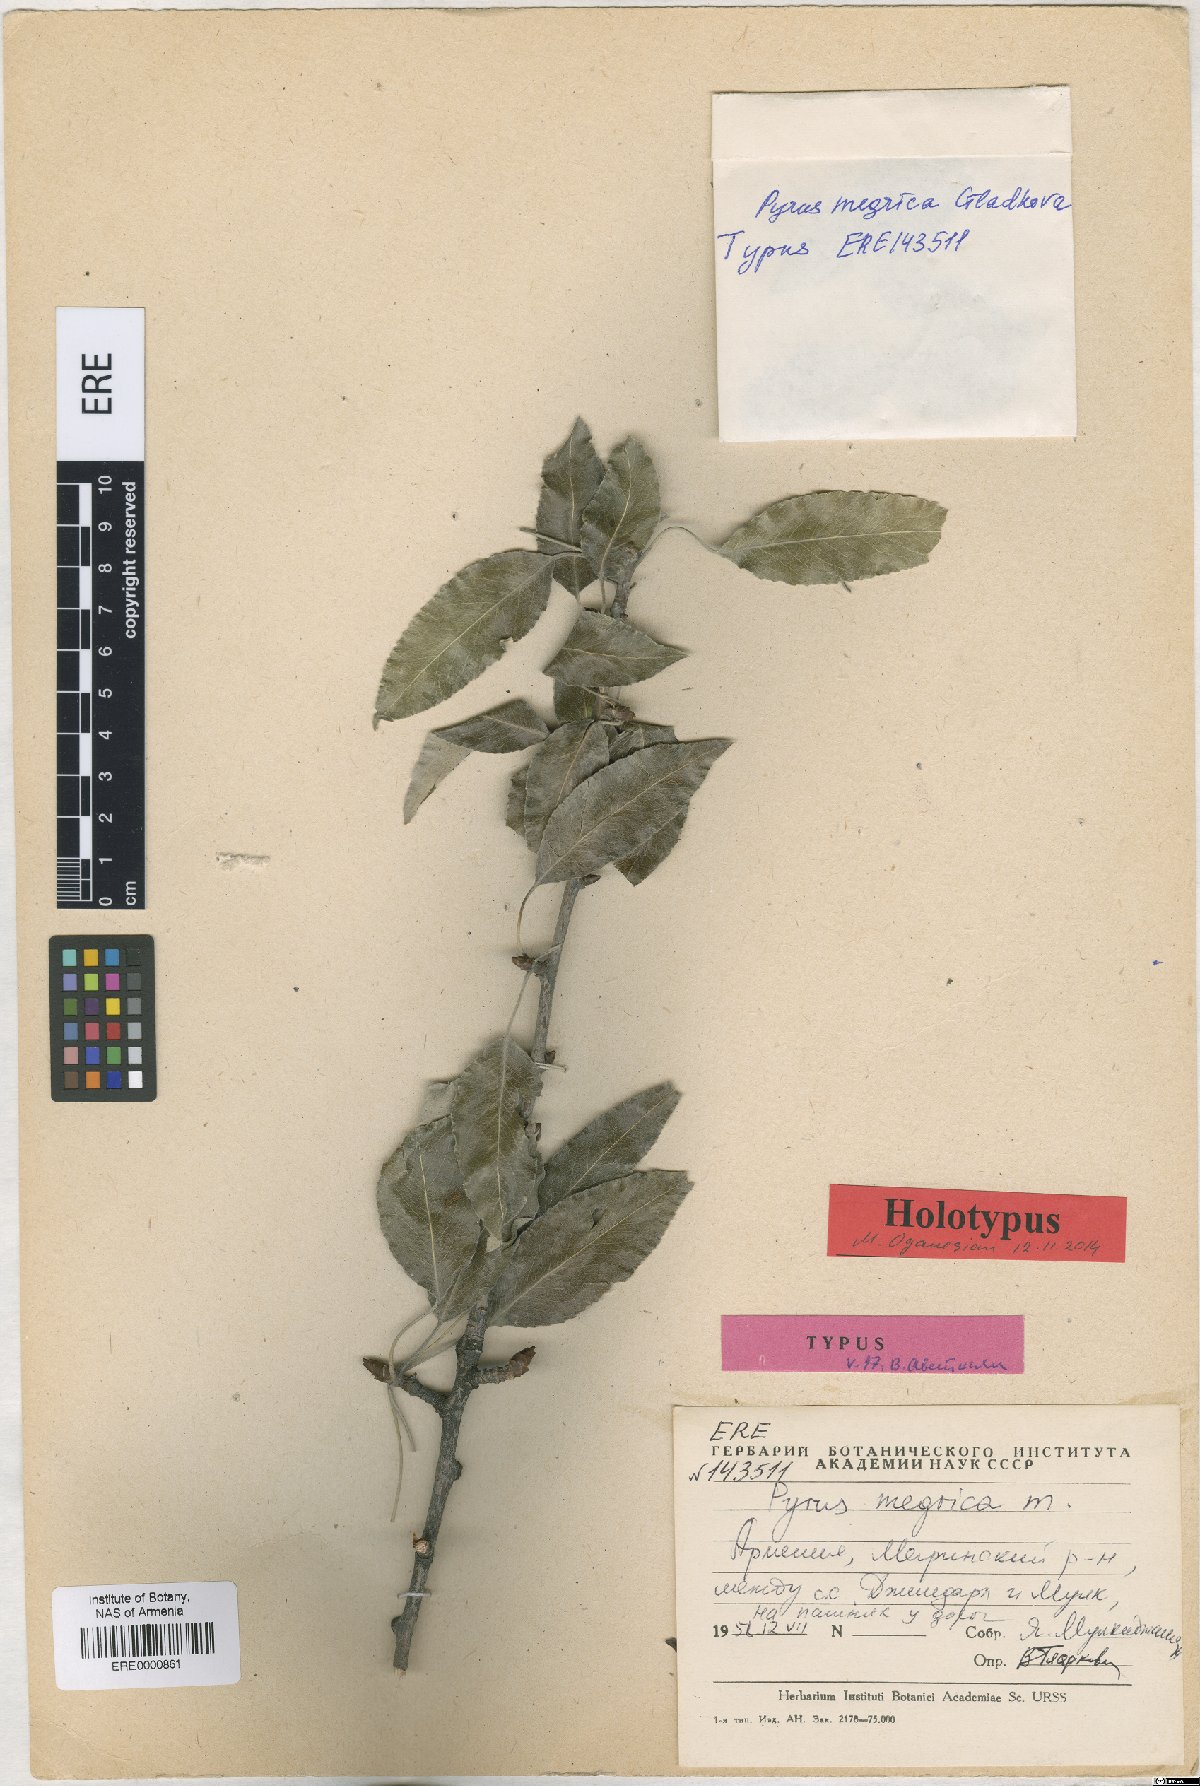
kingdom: Plantae
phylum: Tracheophyta
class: Magnoliopsida
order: Rosales
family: Rosaceae
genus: Pyrus
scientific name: Pyrus megrica
